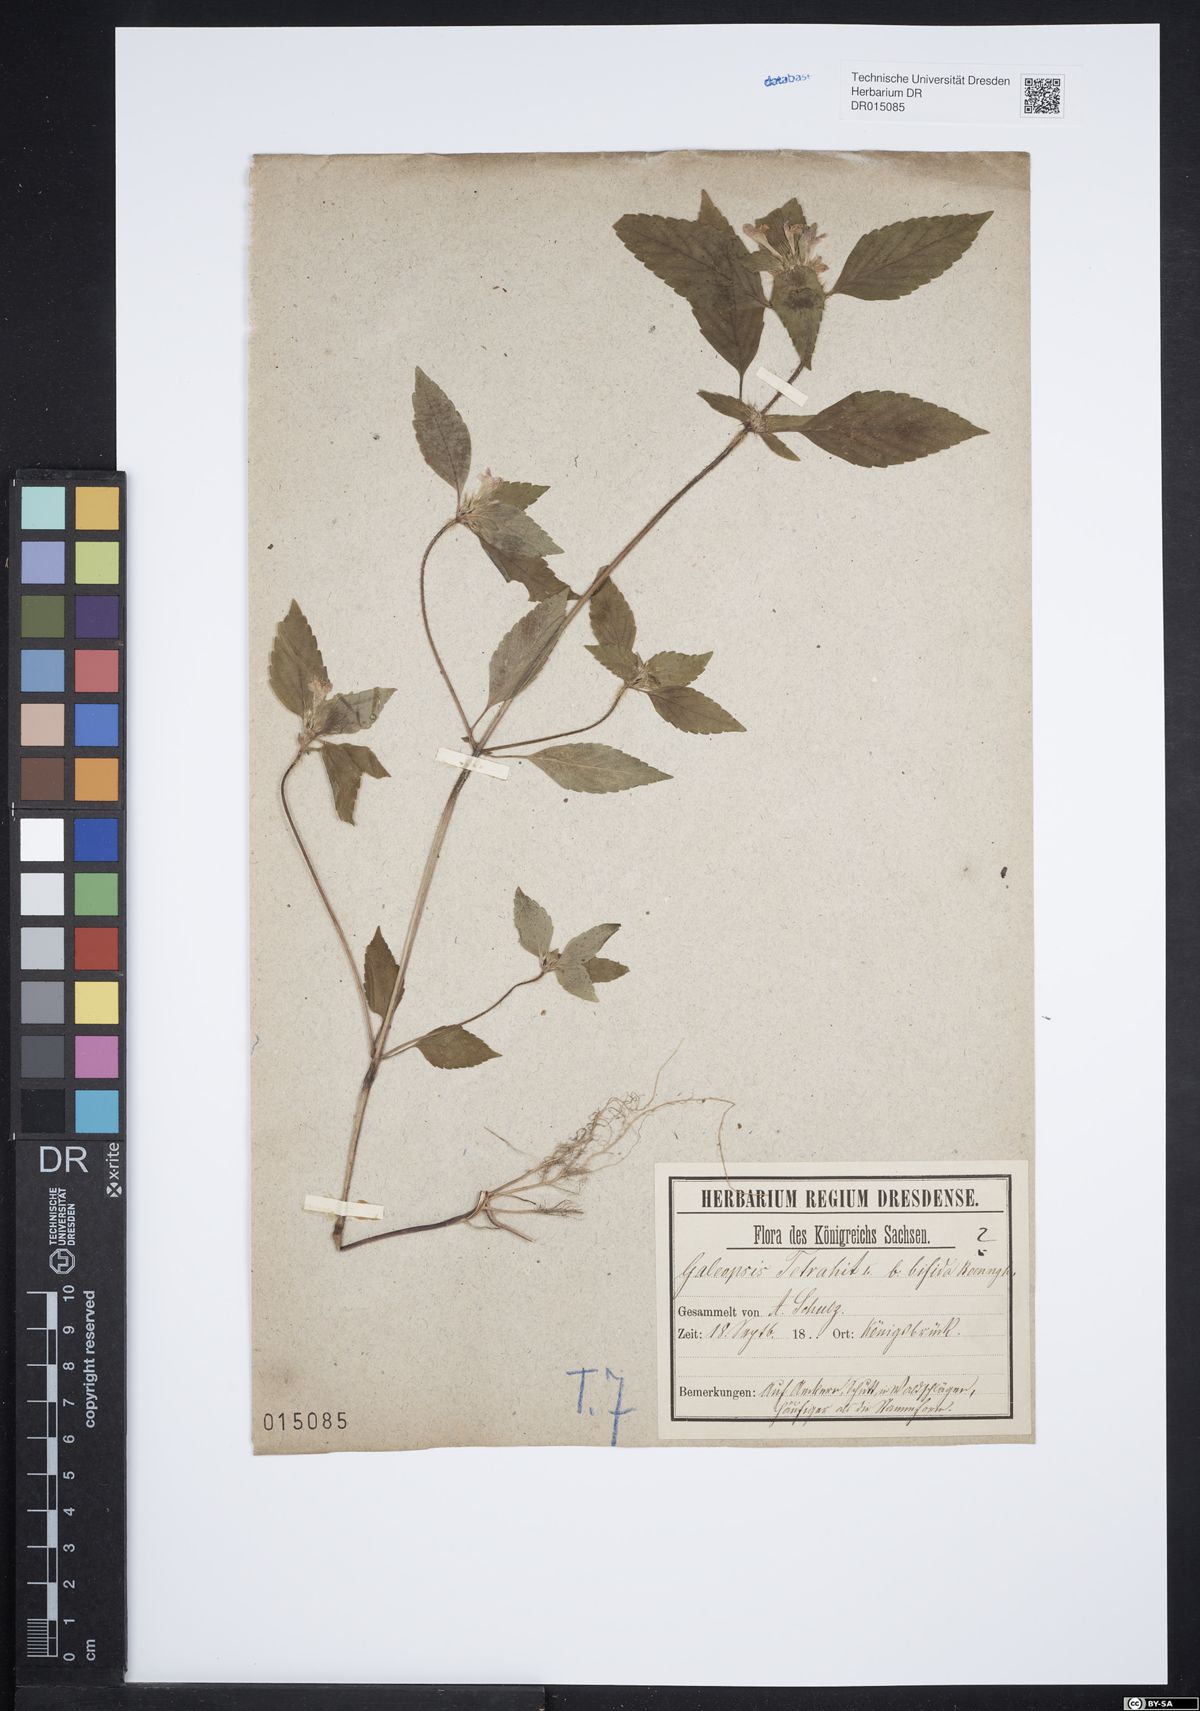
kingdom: Plantae
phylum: Tracheophyta
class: Magnoliopsida
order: Lamiales
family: Lamiaceae
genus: Galeopsis
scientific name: Galeopsis bifida
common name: Bifid hemp-nettle
